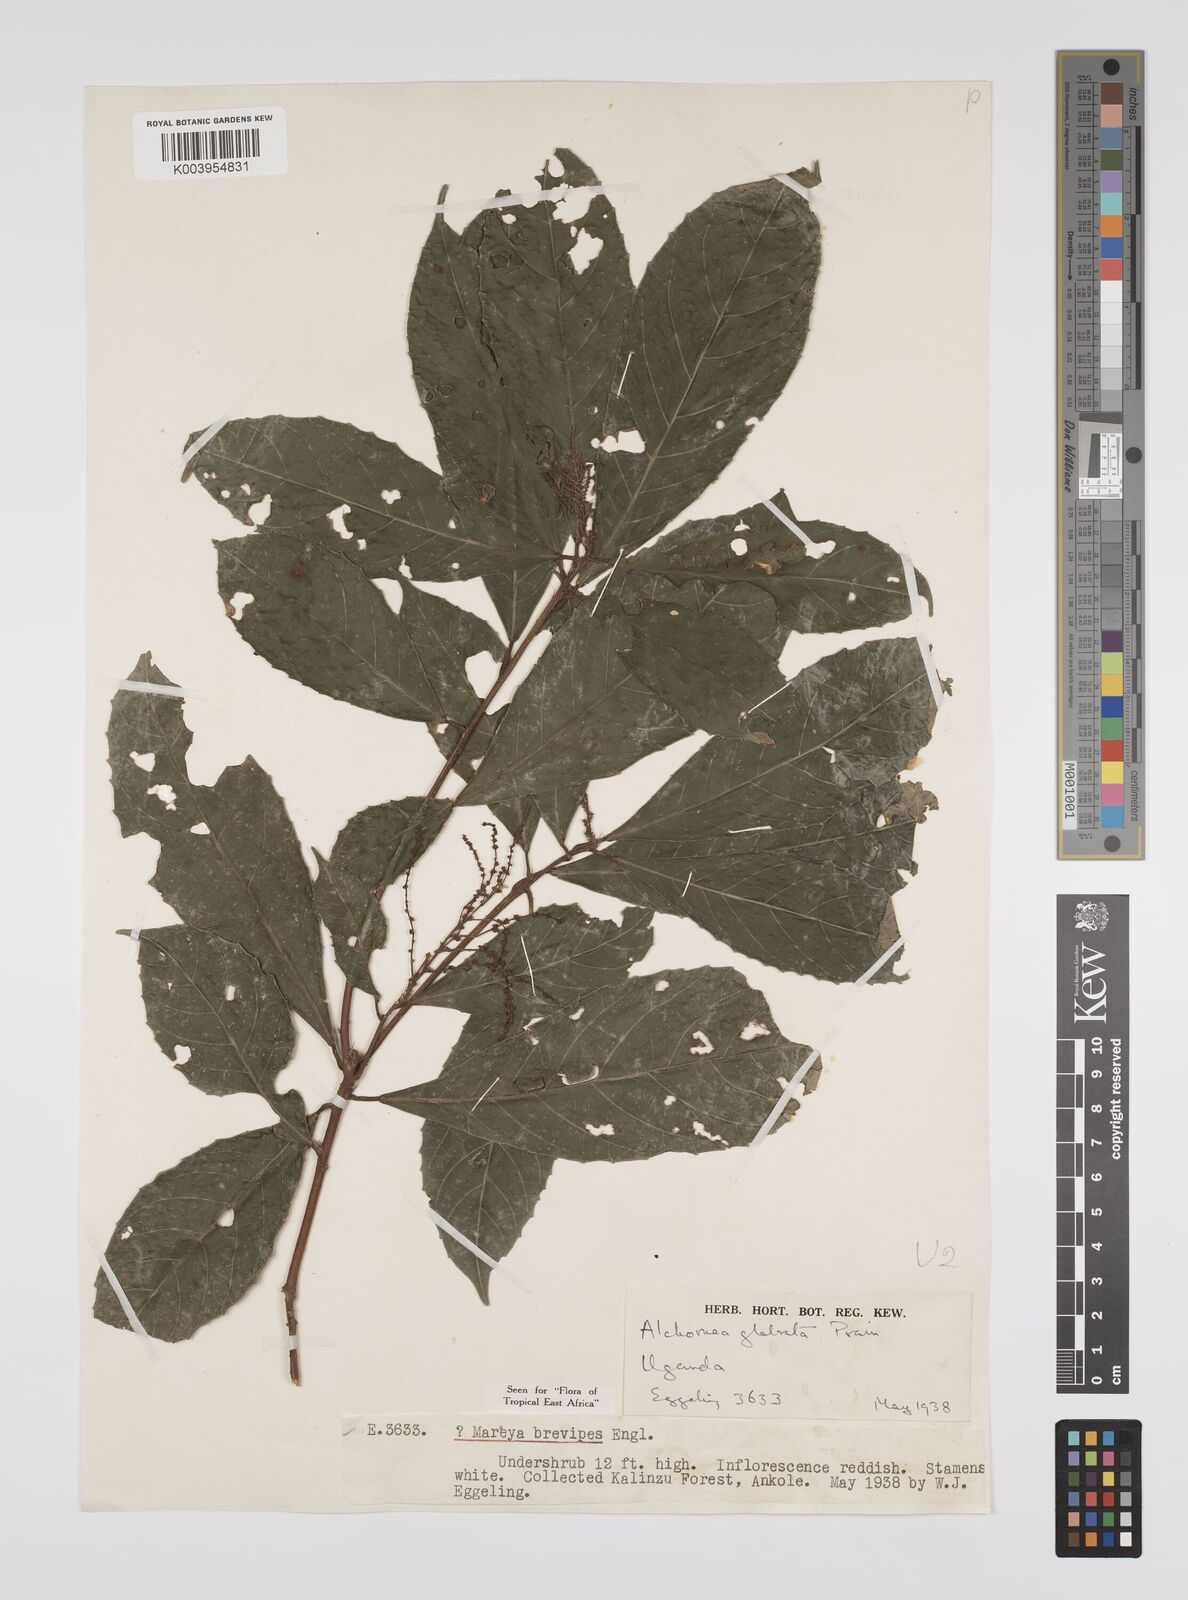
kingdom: Plantae
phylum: Tracheophyta
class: Magnoliopsida
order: Malpighiales
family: Euphorbiaceae
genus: Alchornea
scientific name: Alchornea hirtella
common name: Forest bead-string
